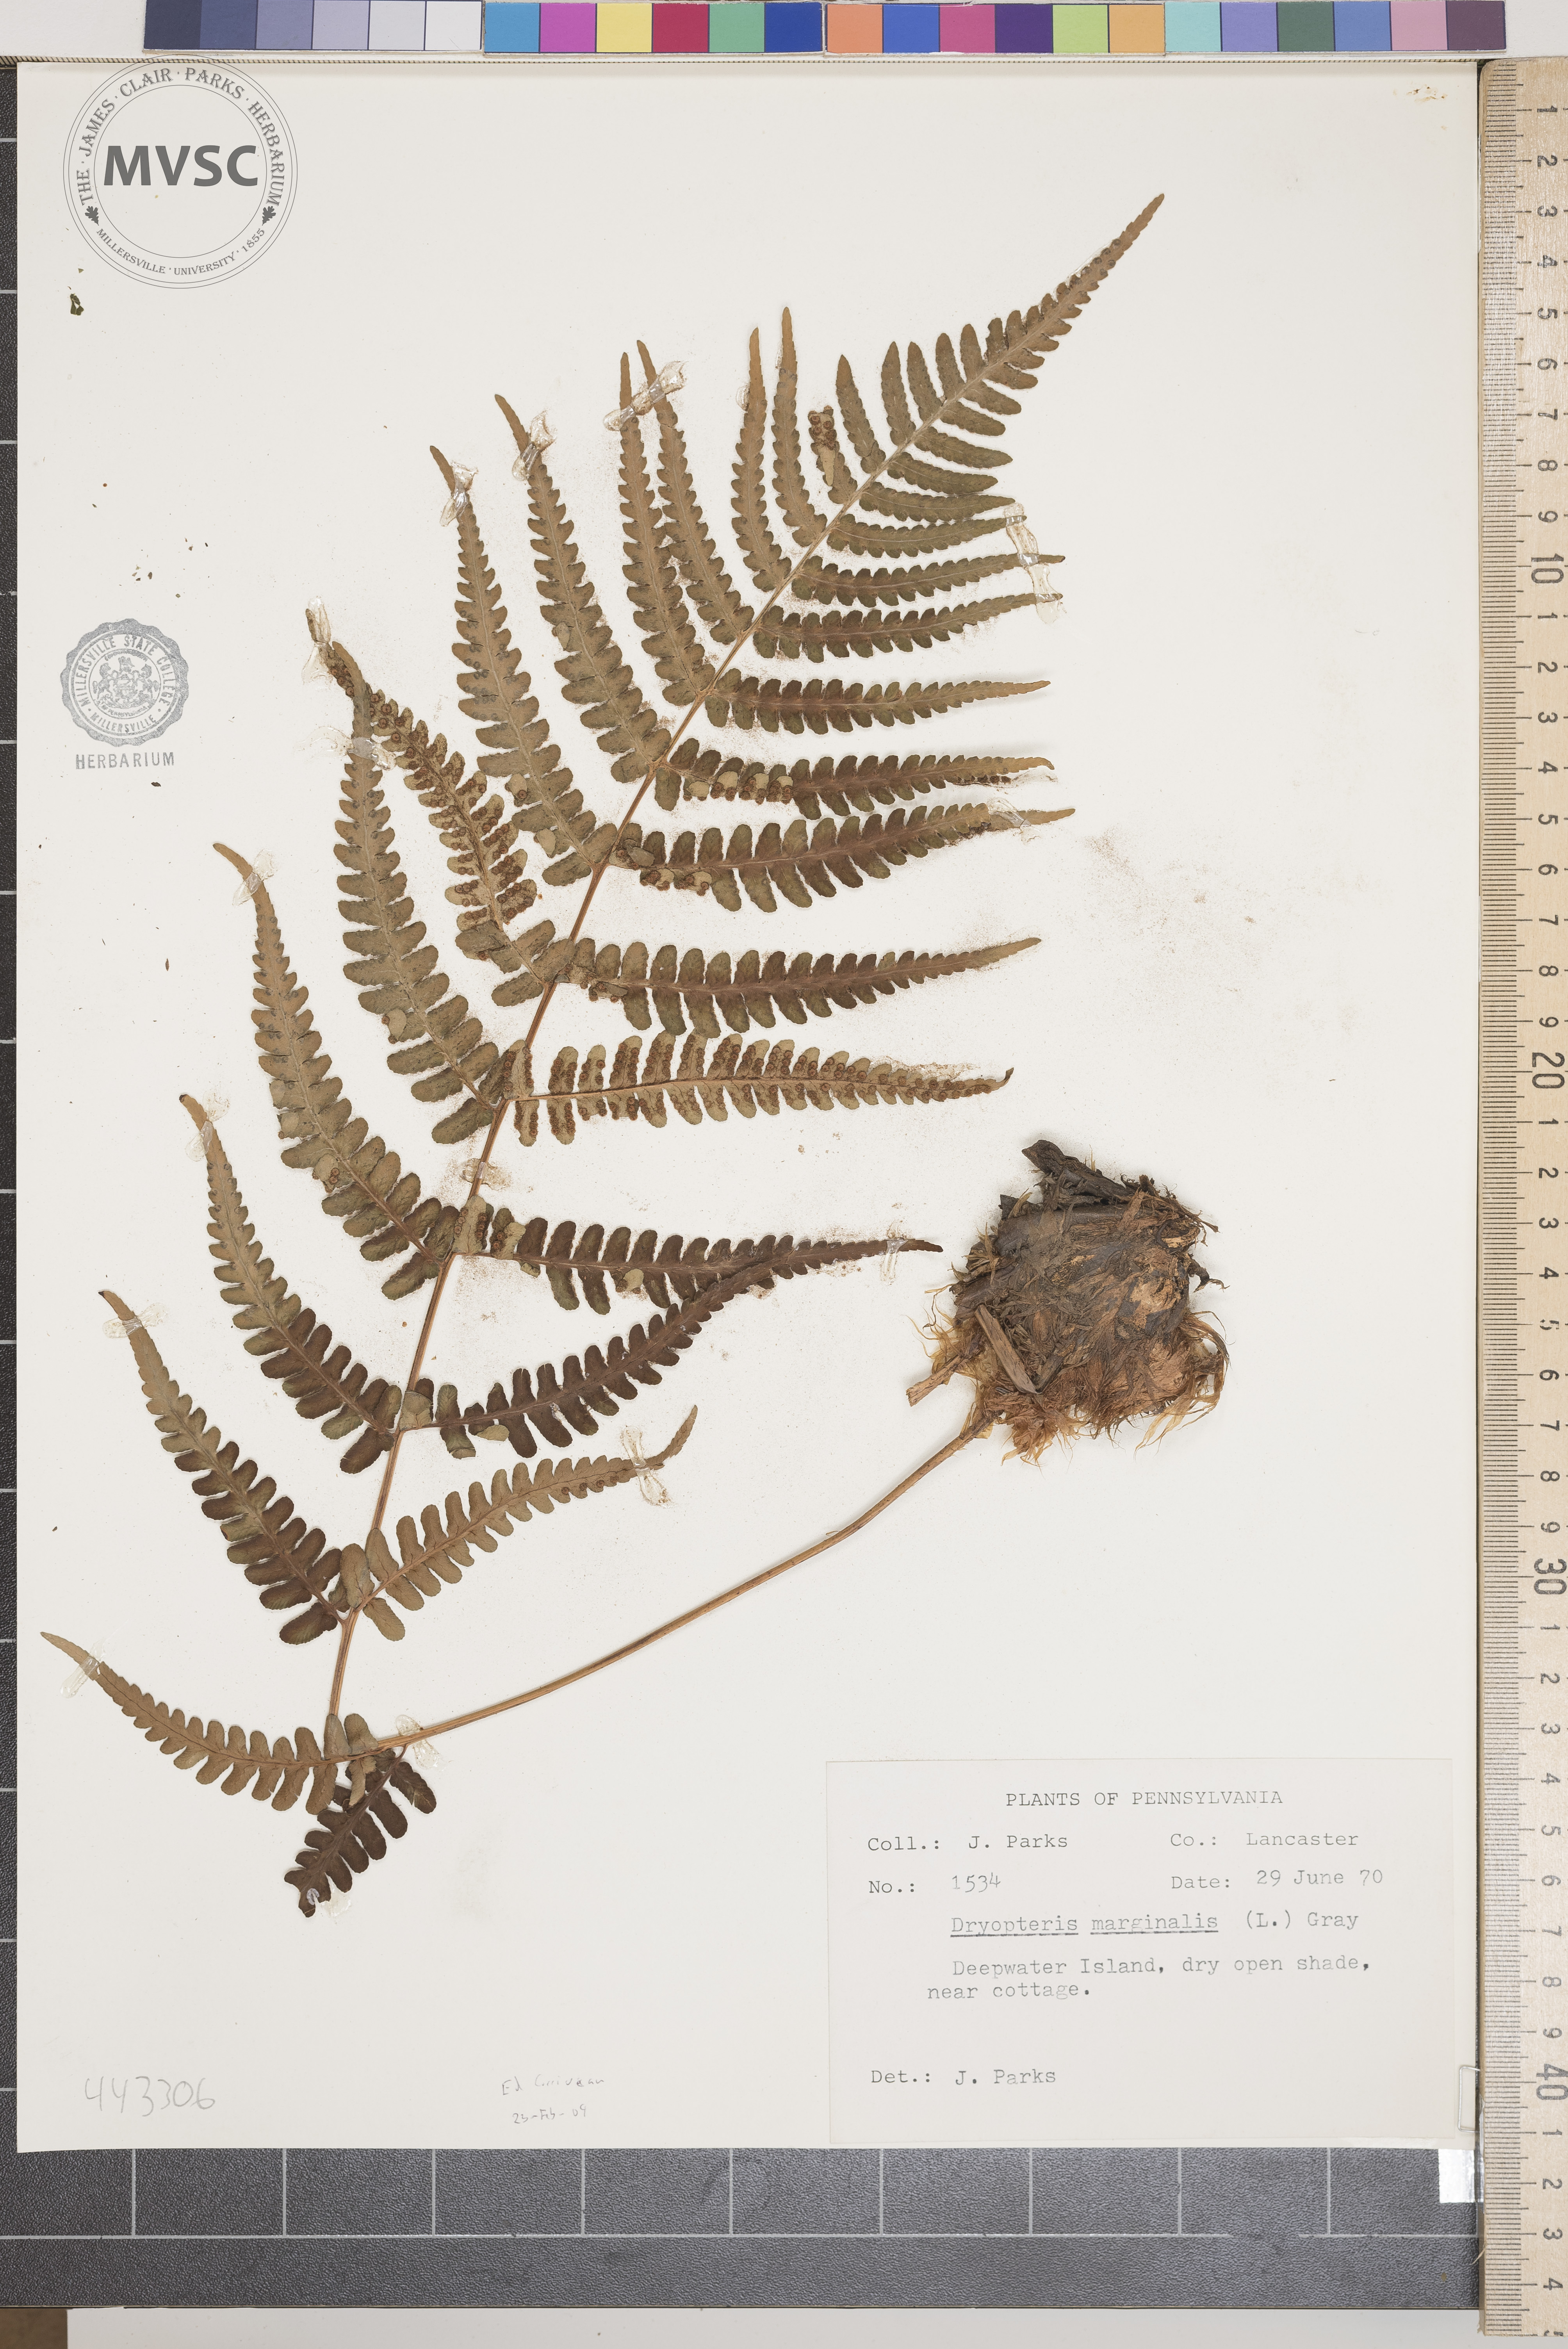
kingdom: Plantae
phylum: Tracheophyta
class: Polypodiopsida
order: Polypodiales
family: Dryopteridaceae
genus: Dryopteris
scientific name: Dryopteris marginalis
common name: Marginal wood fern
